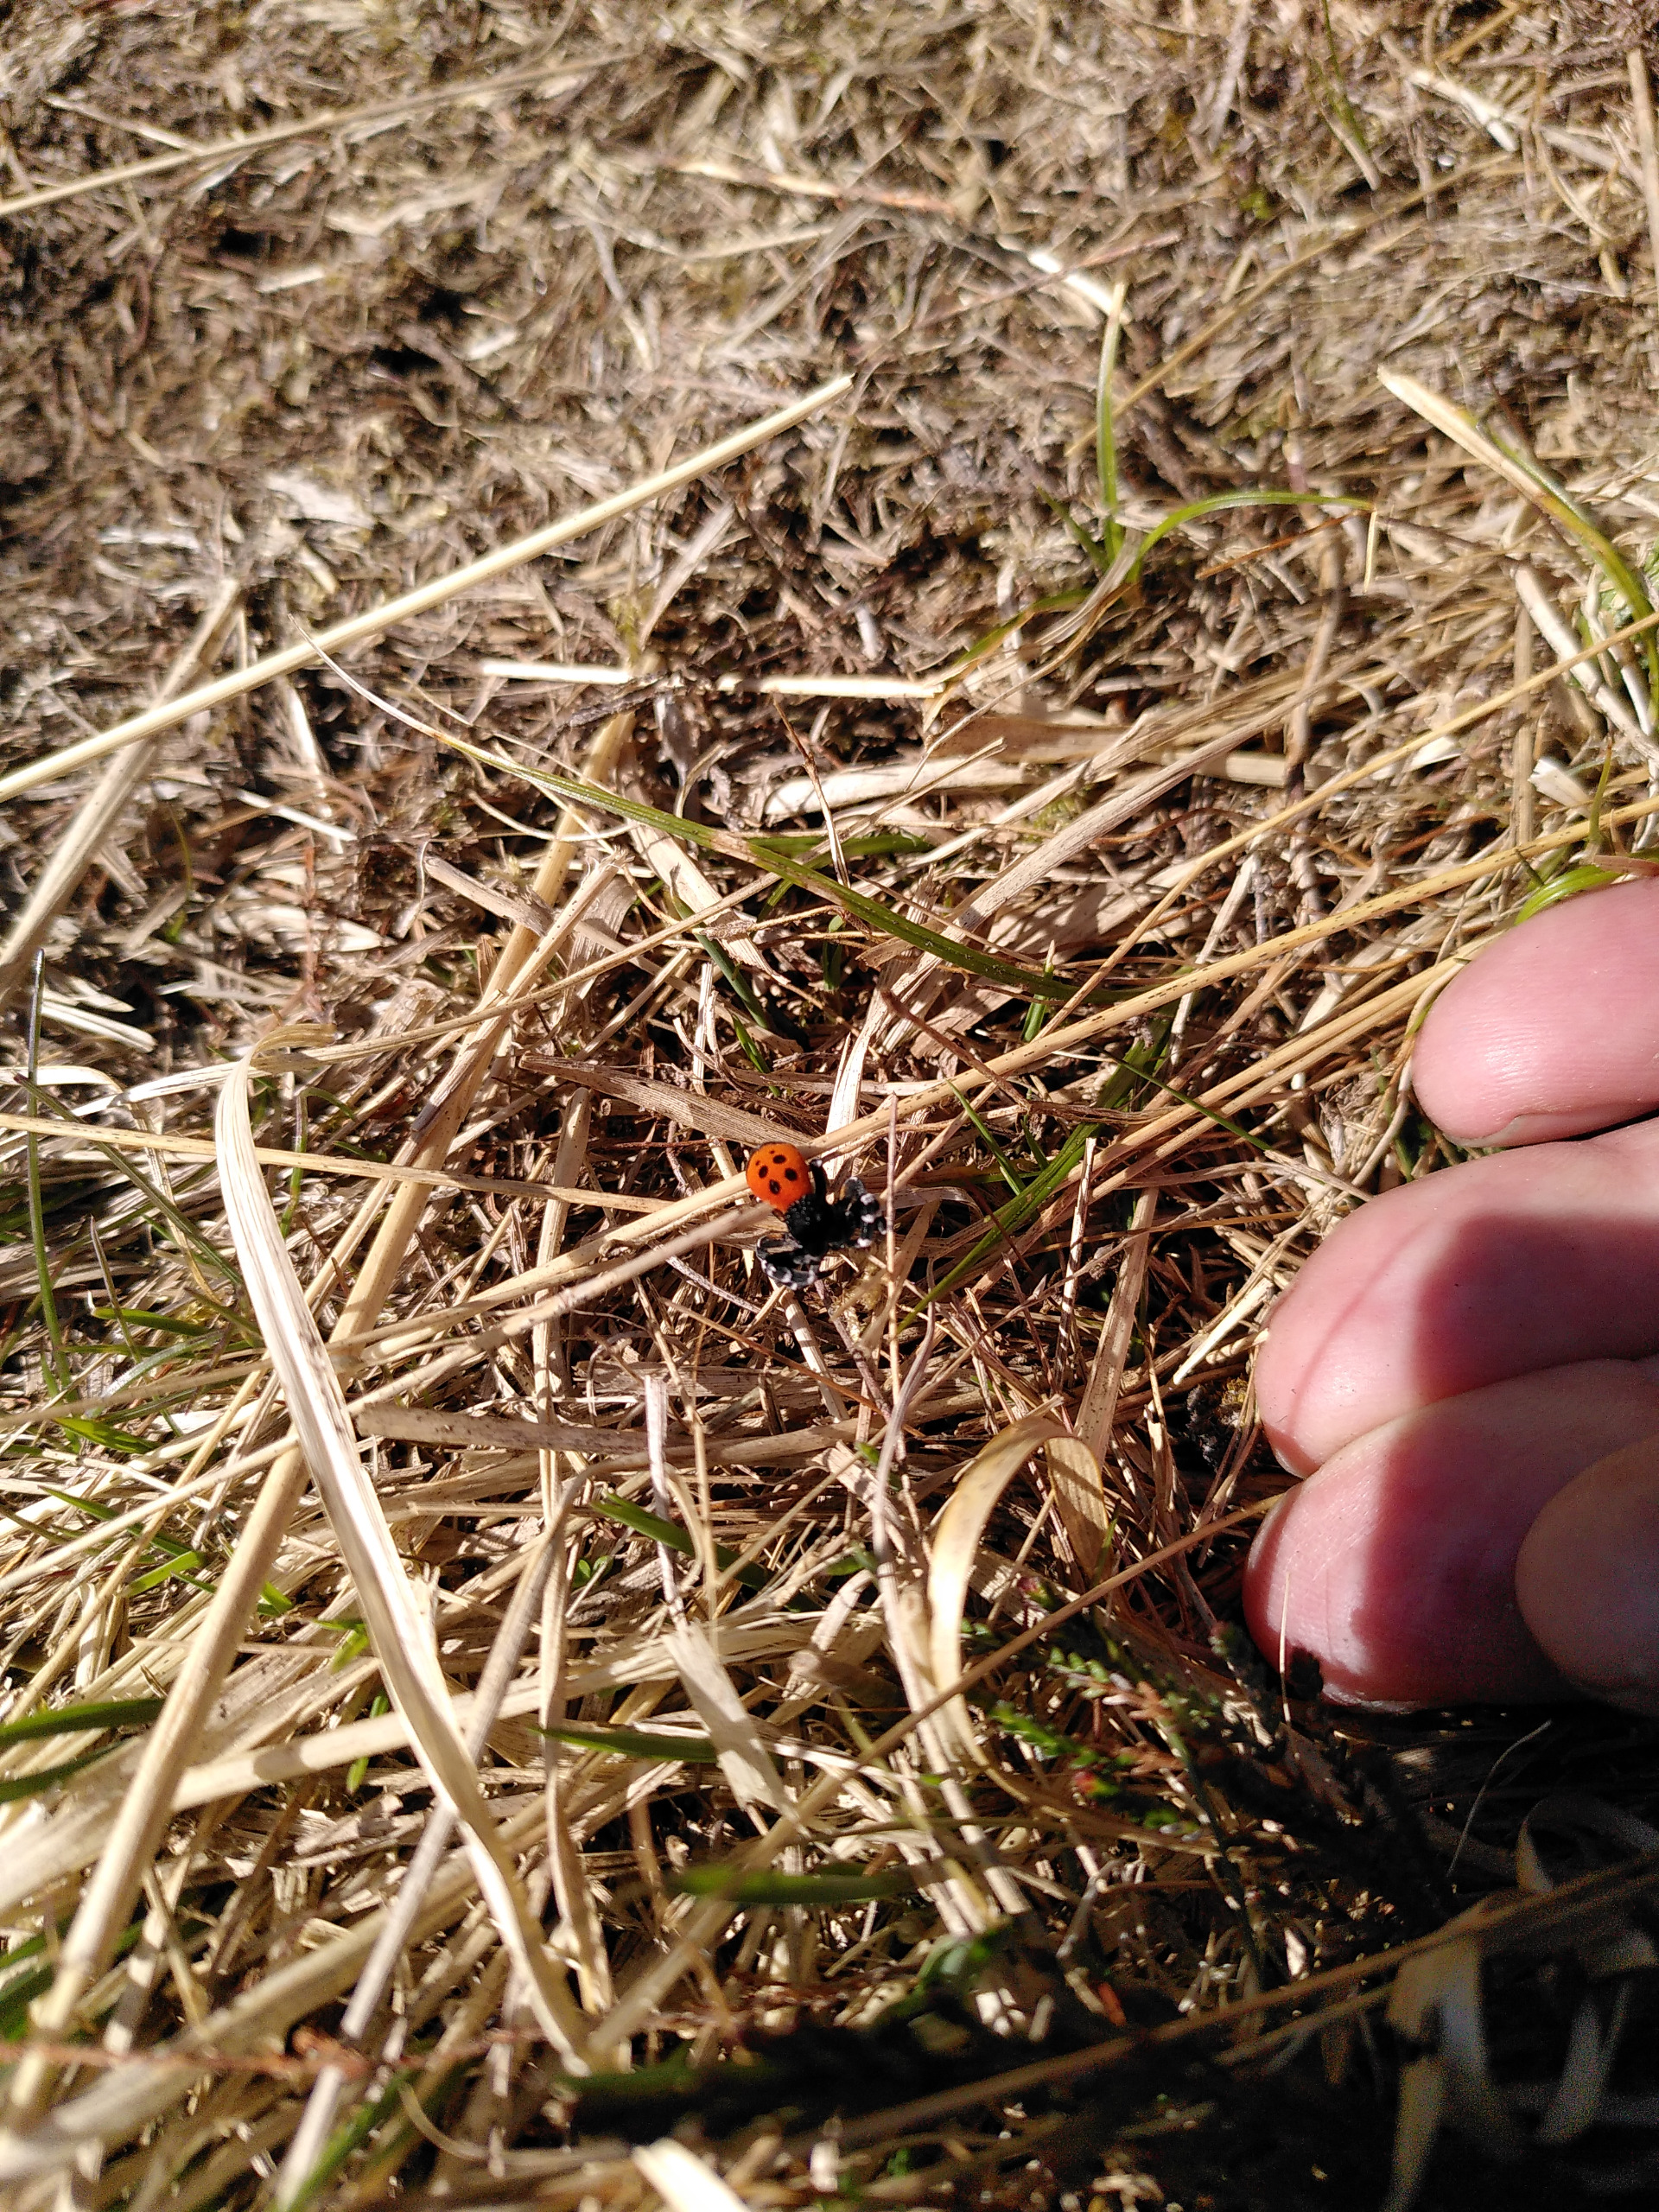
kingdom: Animalia
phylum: Arthropoda
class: Arachnida
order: Araneae
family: Eresidae
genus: Eresus
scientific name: Eresus sandaliatus
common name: Mariehøneedderkop
